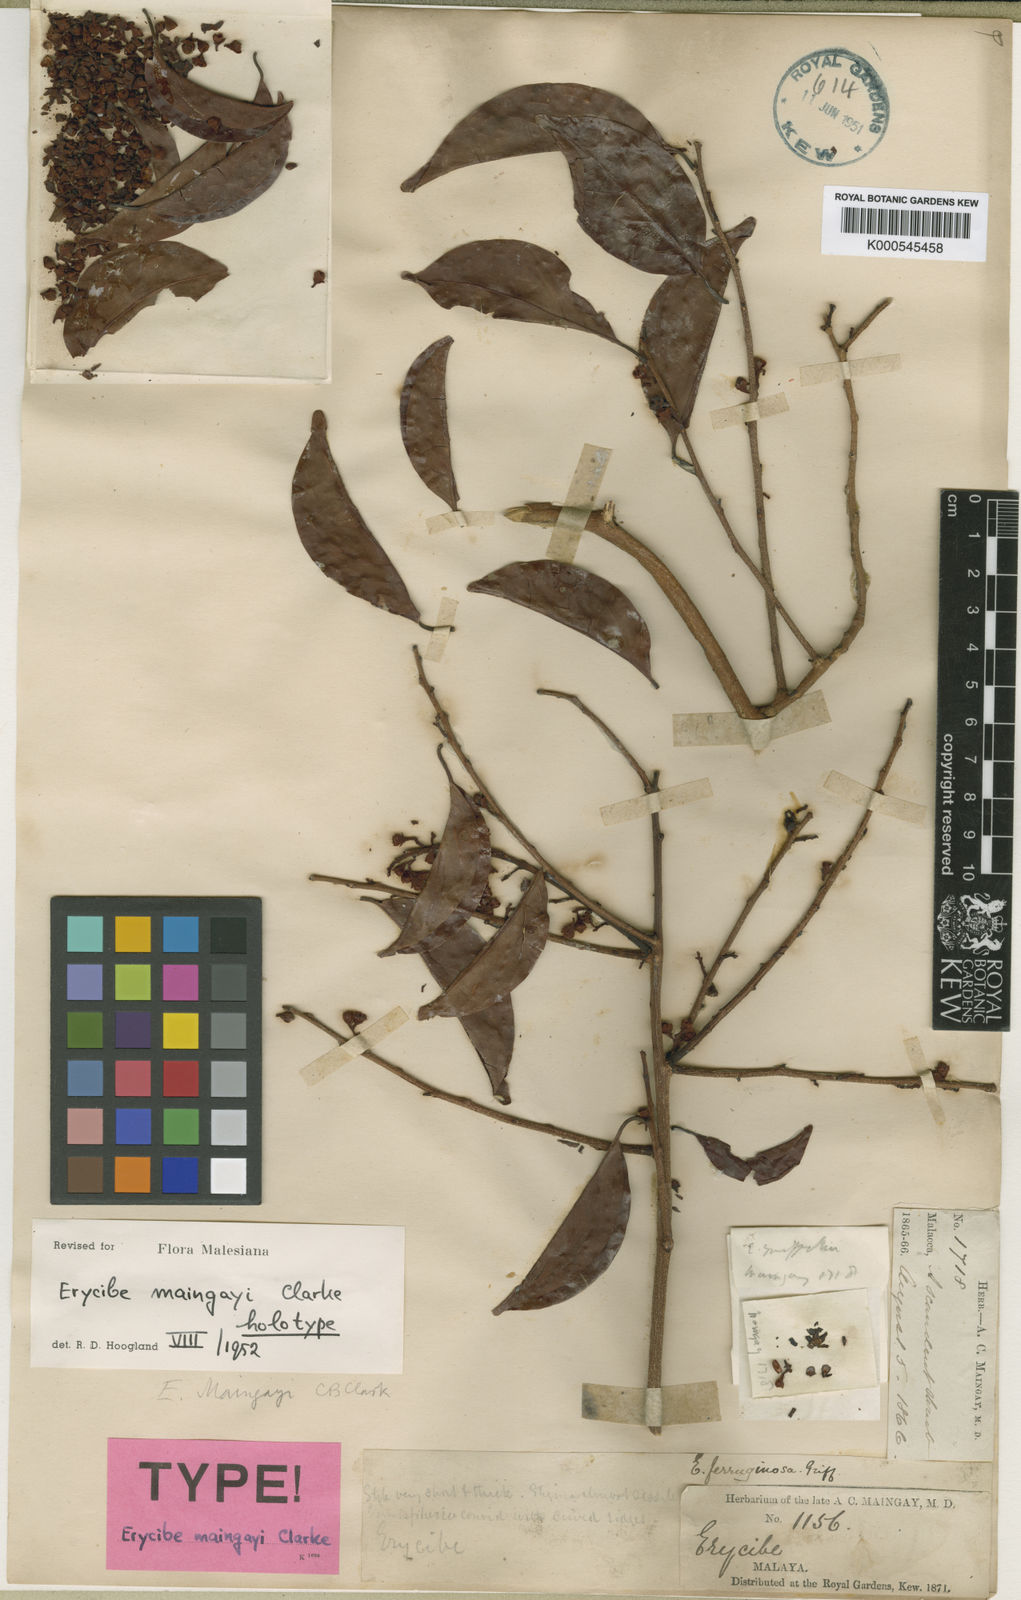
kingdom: Plantae
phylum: Tracheophyta
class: Magnoliopsida
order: Solanales
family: Convolvulaceae
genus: Erycibe
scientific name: Erycibe maingayi
